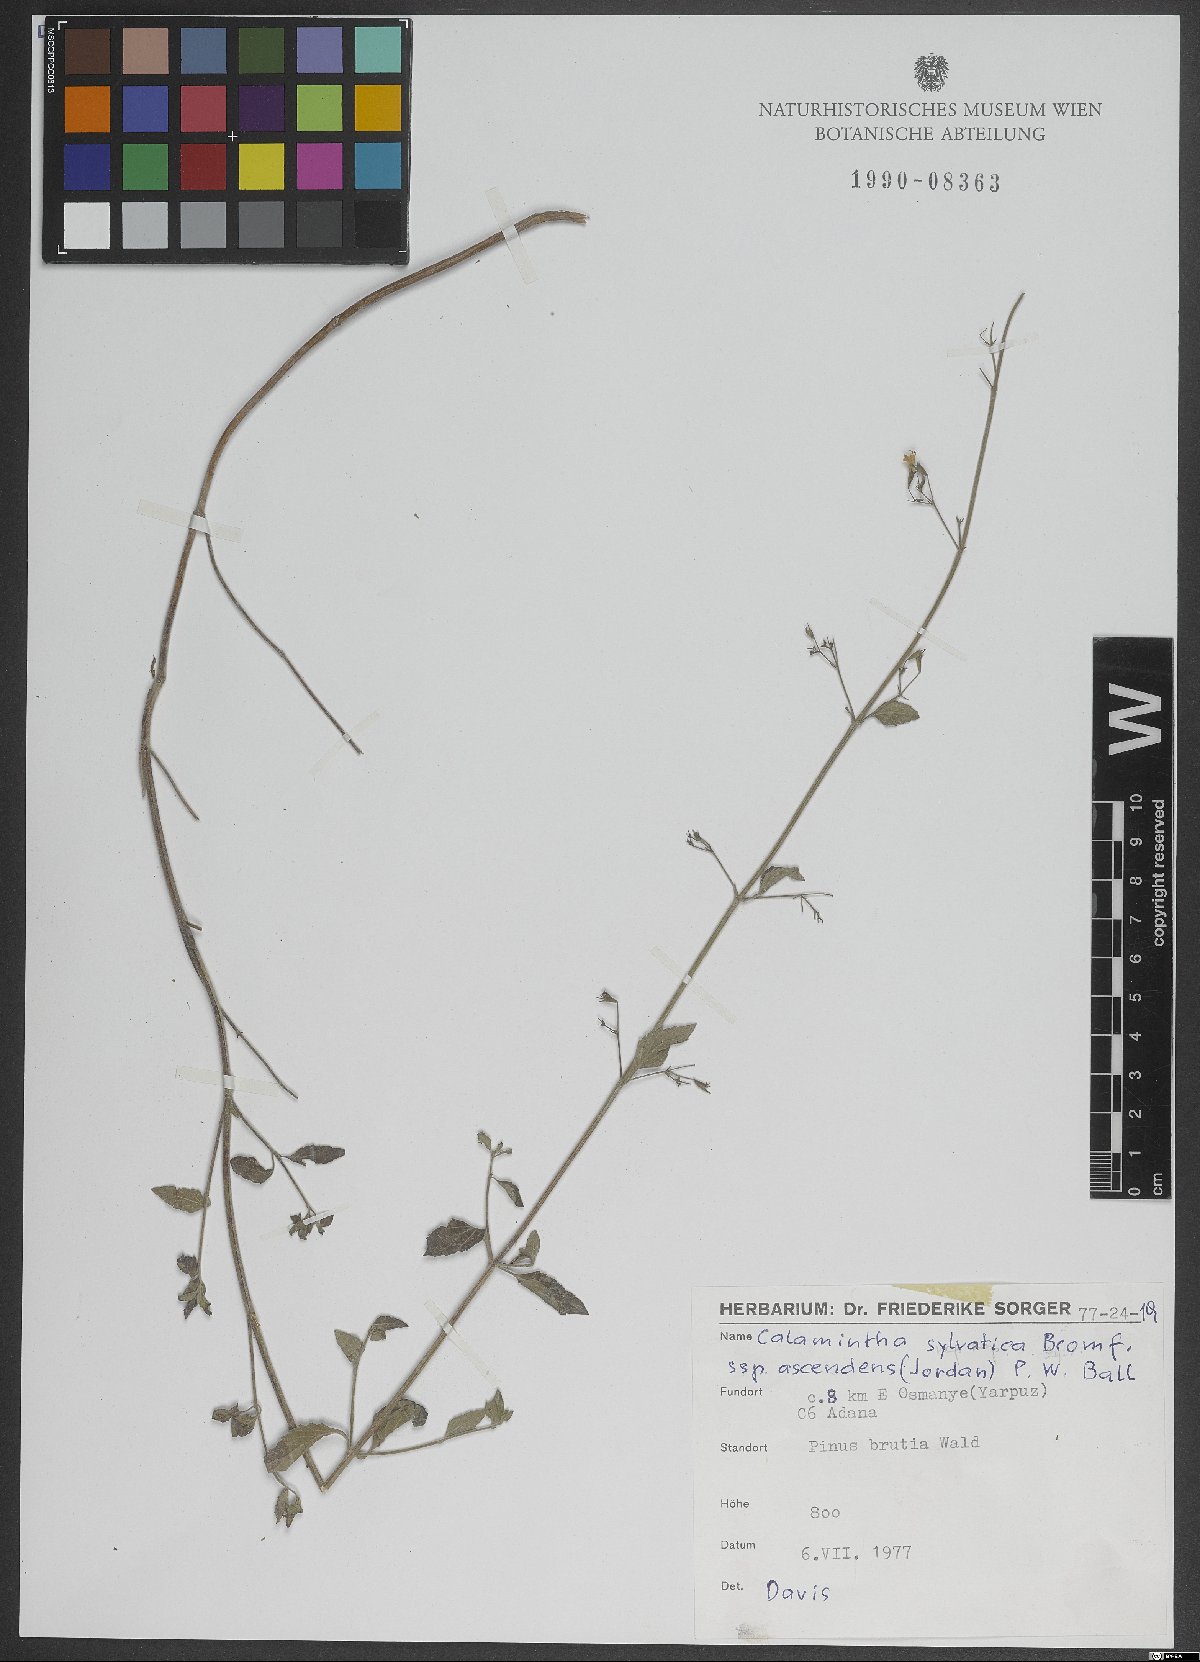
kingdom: Plantae
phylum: Tracheophyta
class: Magnoliopsida
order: Lamiales
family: Lamiaceae
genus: Clinopodium
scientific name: Clinopodium menthifolium
